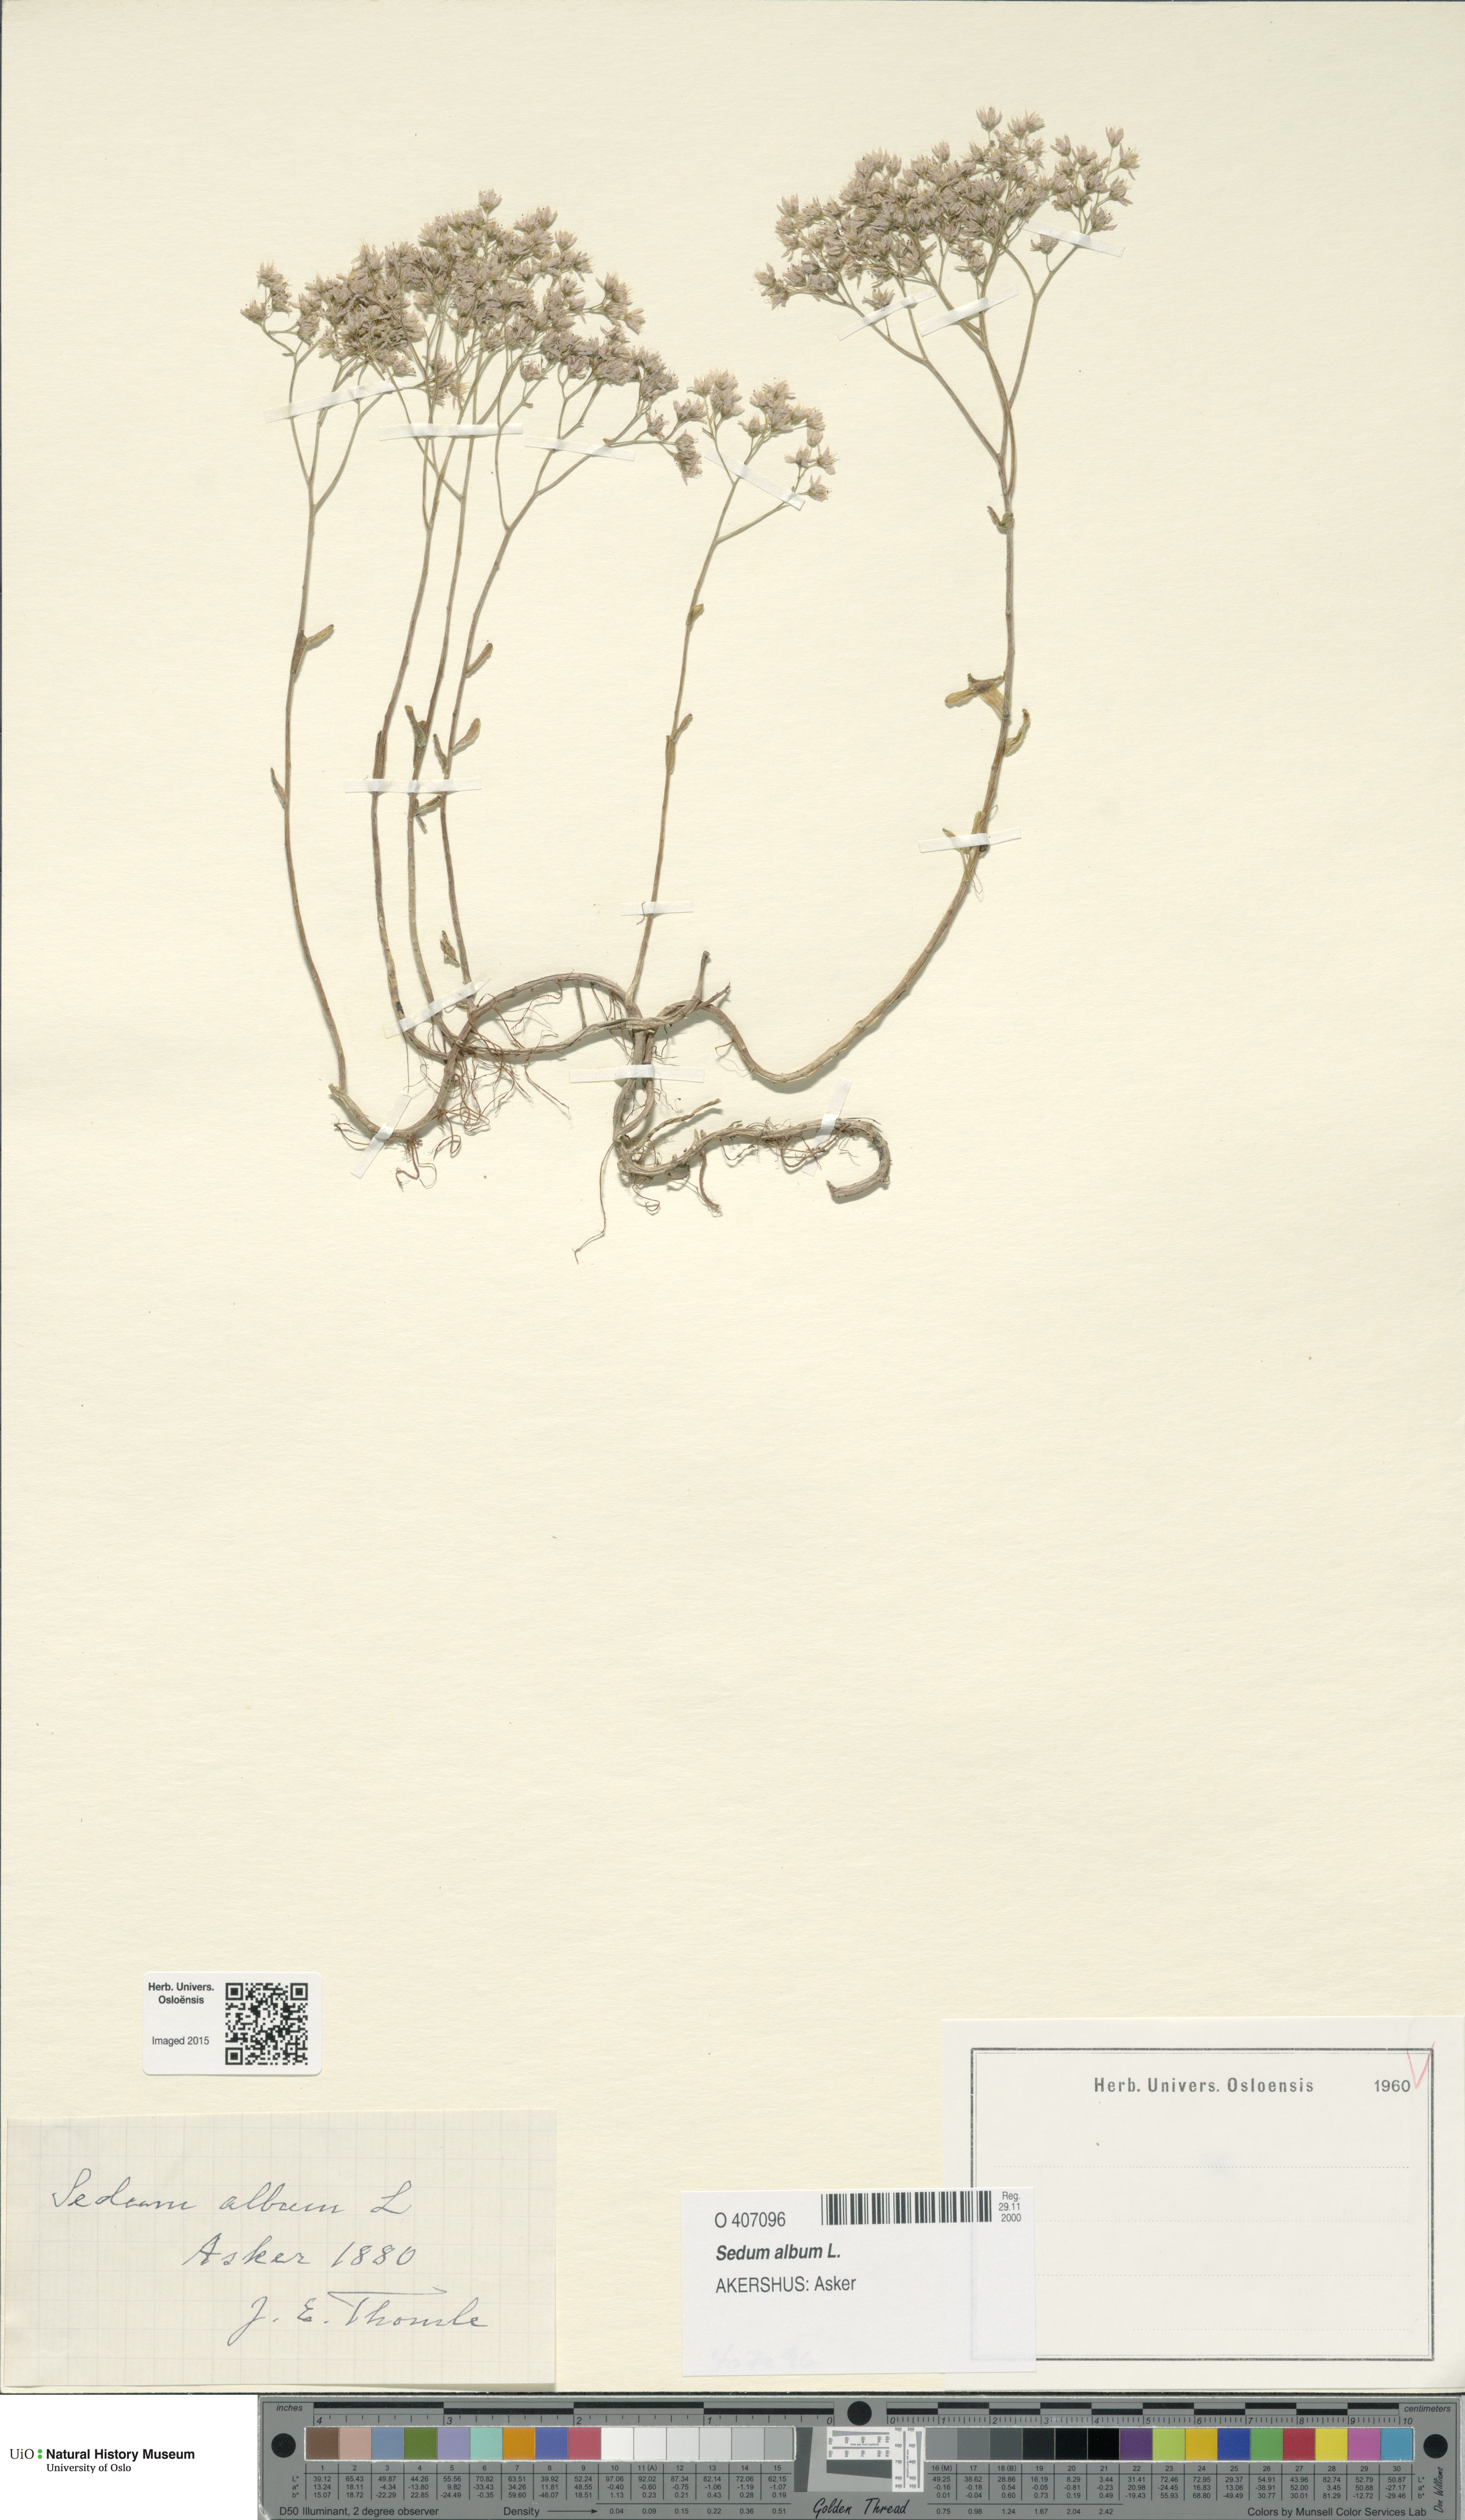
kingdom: Plantae
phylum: Tracheophyta
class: Magnoliopsida
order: Saxifragales
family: Crassulaceae
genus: Sedum
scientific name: Sedum album
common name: White stonecrop
